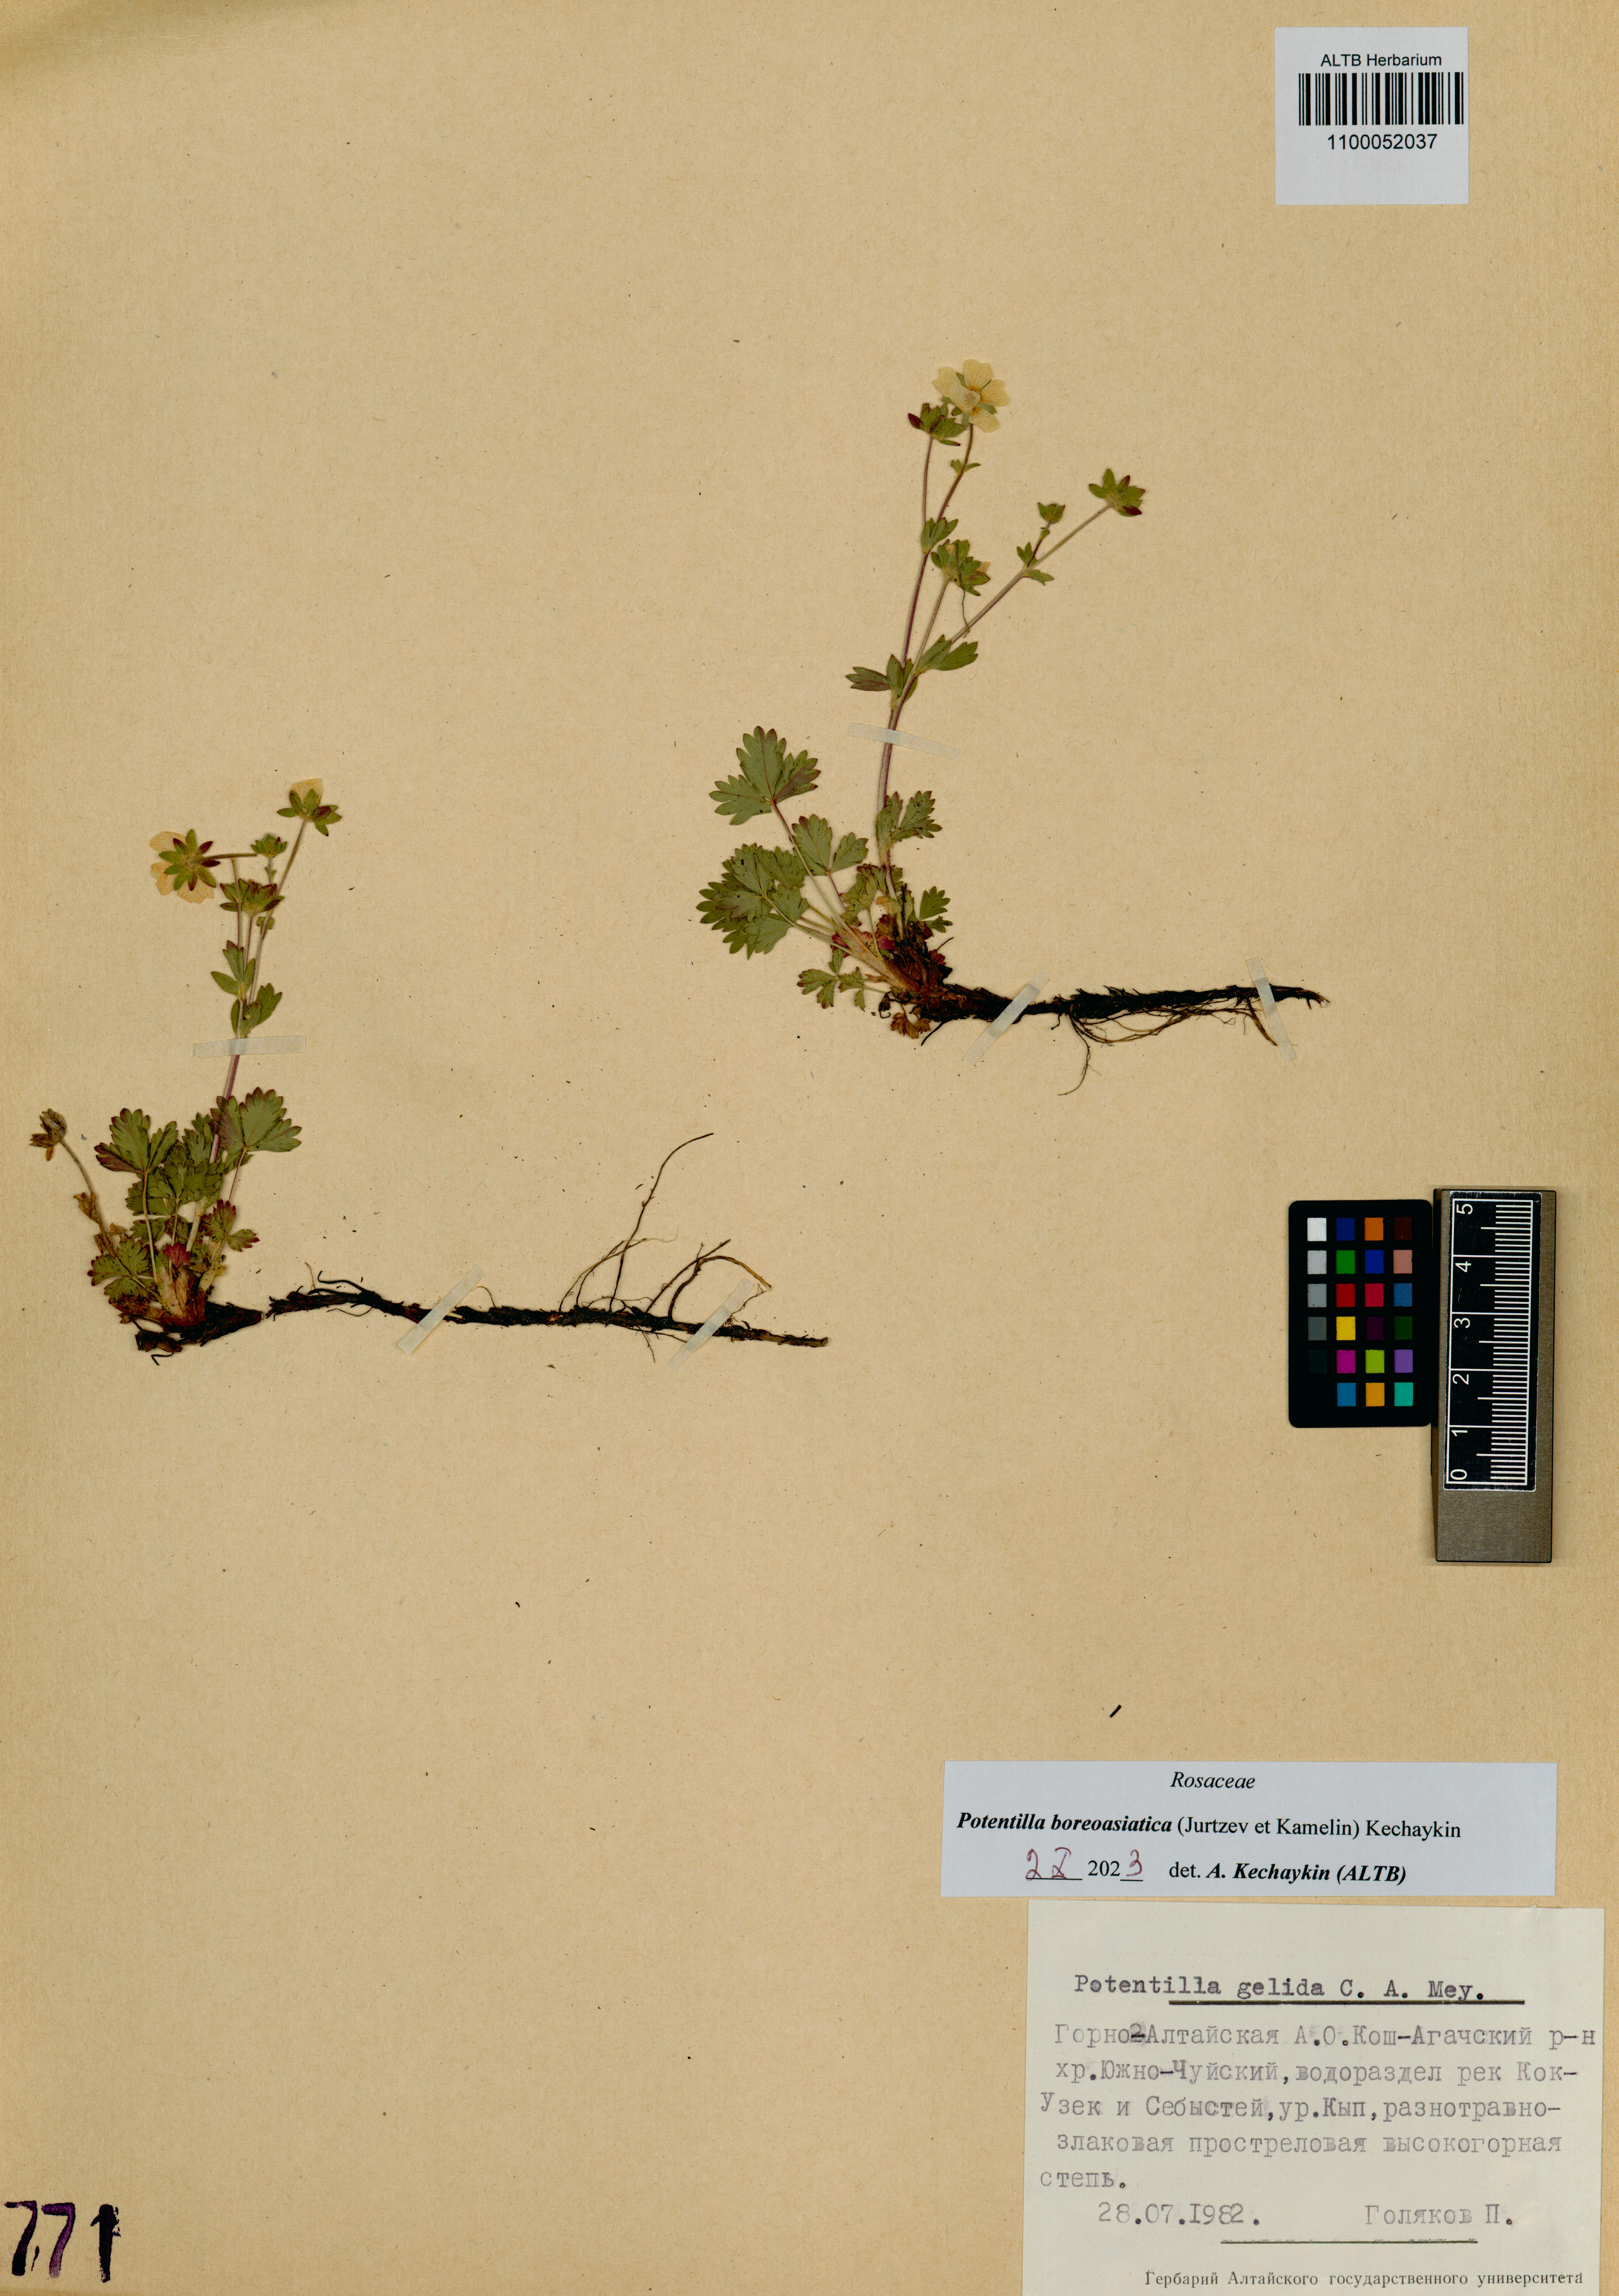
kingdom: Plantae
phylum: Tracheophyta
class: Magnoliopsida
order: Rosales
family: Rosaceae
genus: Potentilla
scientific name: Potentilla
